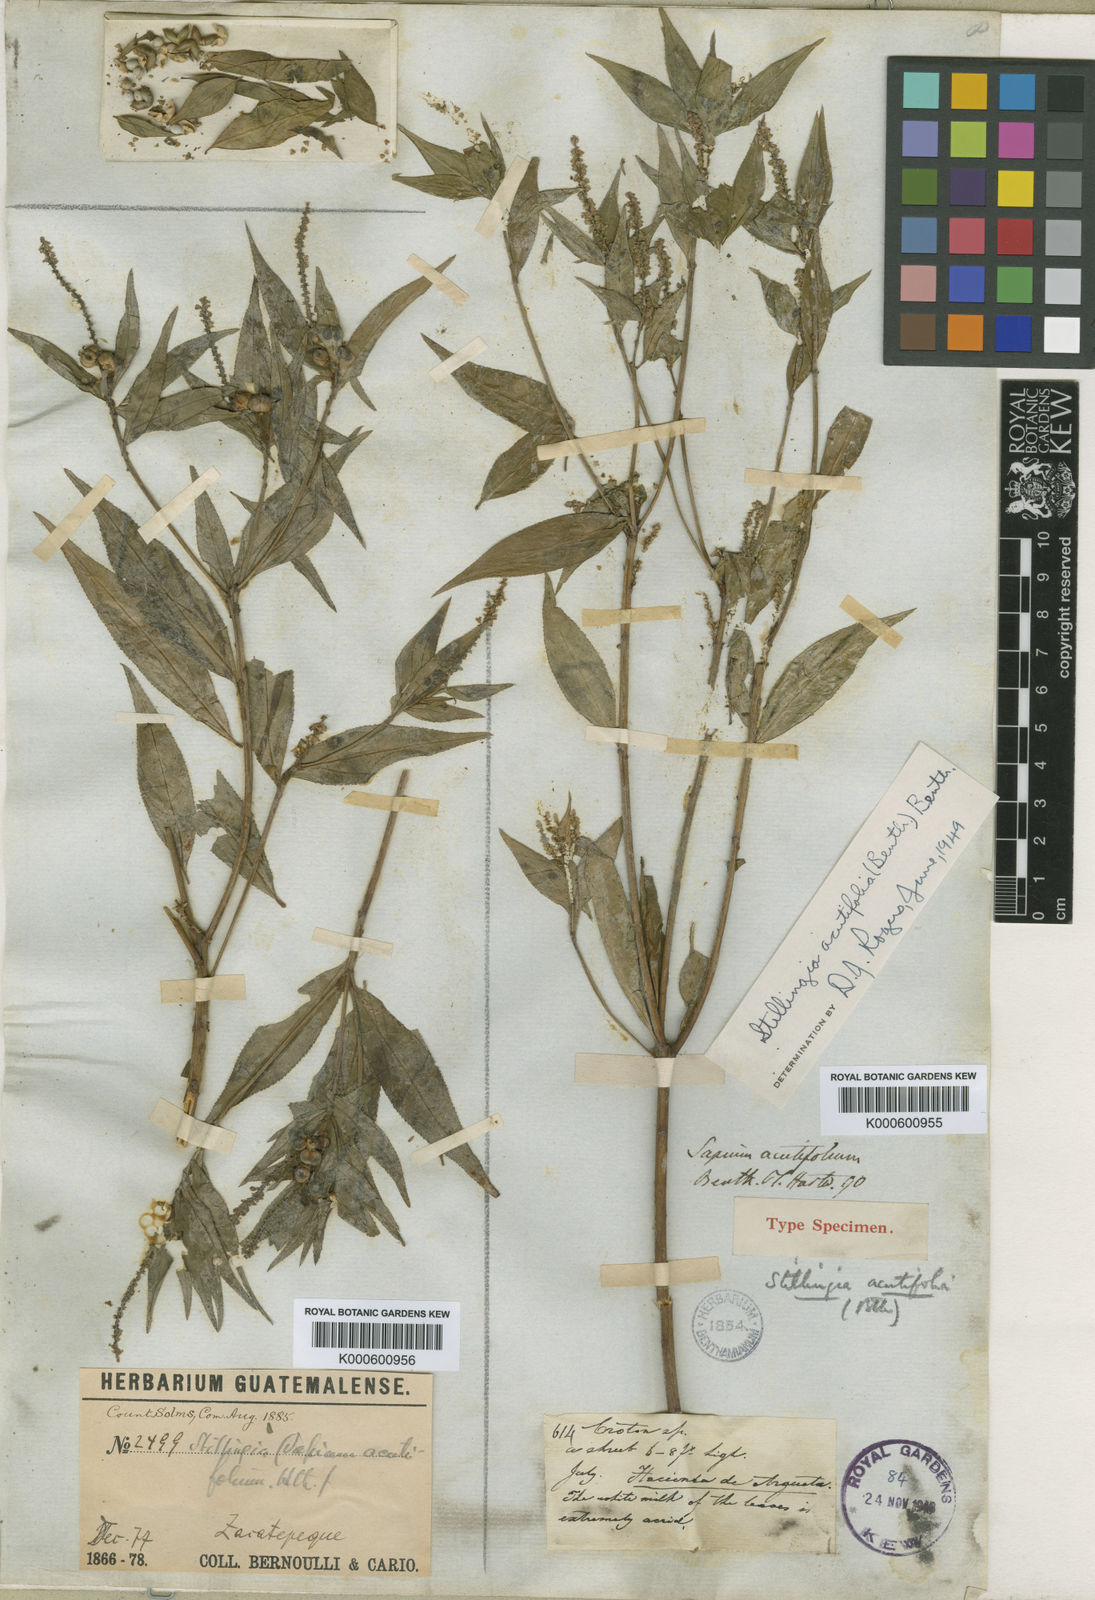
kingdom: Plantae
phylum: Tracheophyta
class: Magnoliopsida
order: Malpighiales
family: Euphorbiaceae
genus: Stillingia
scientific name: Stillingia acutifolia
